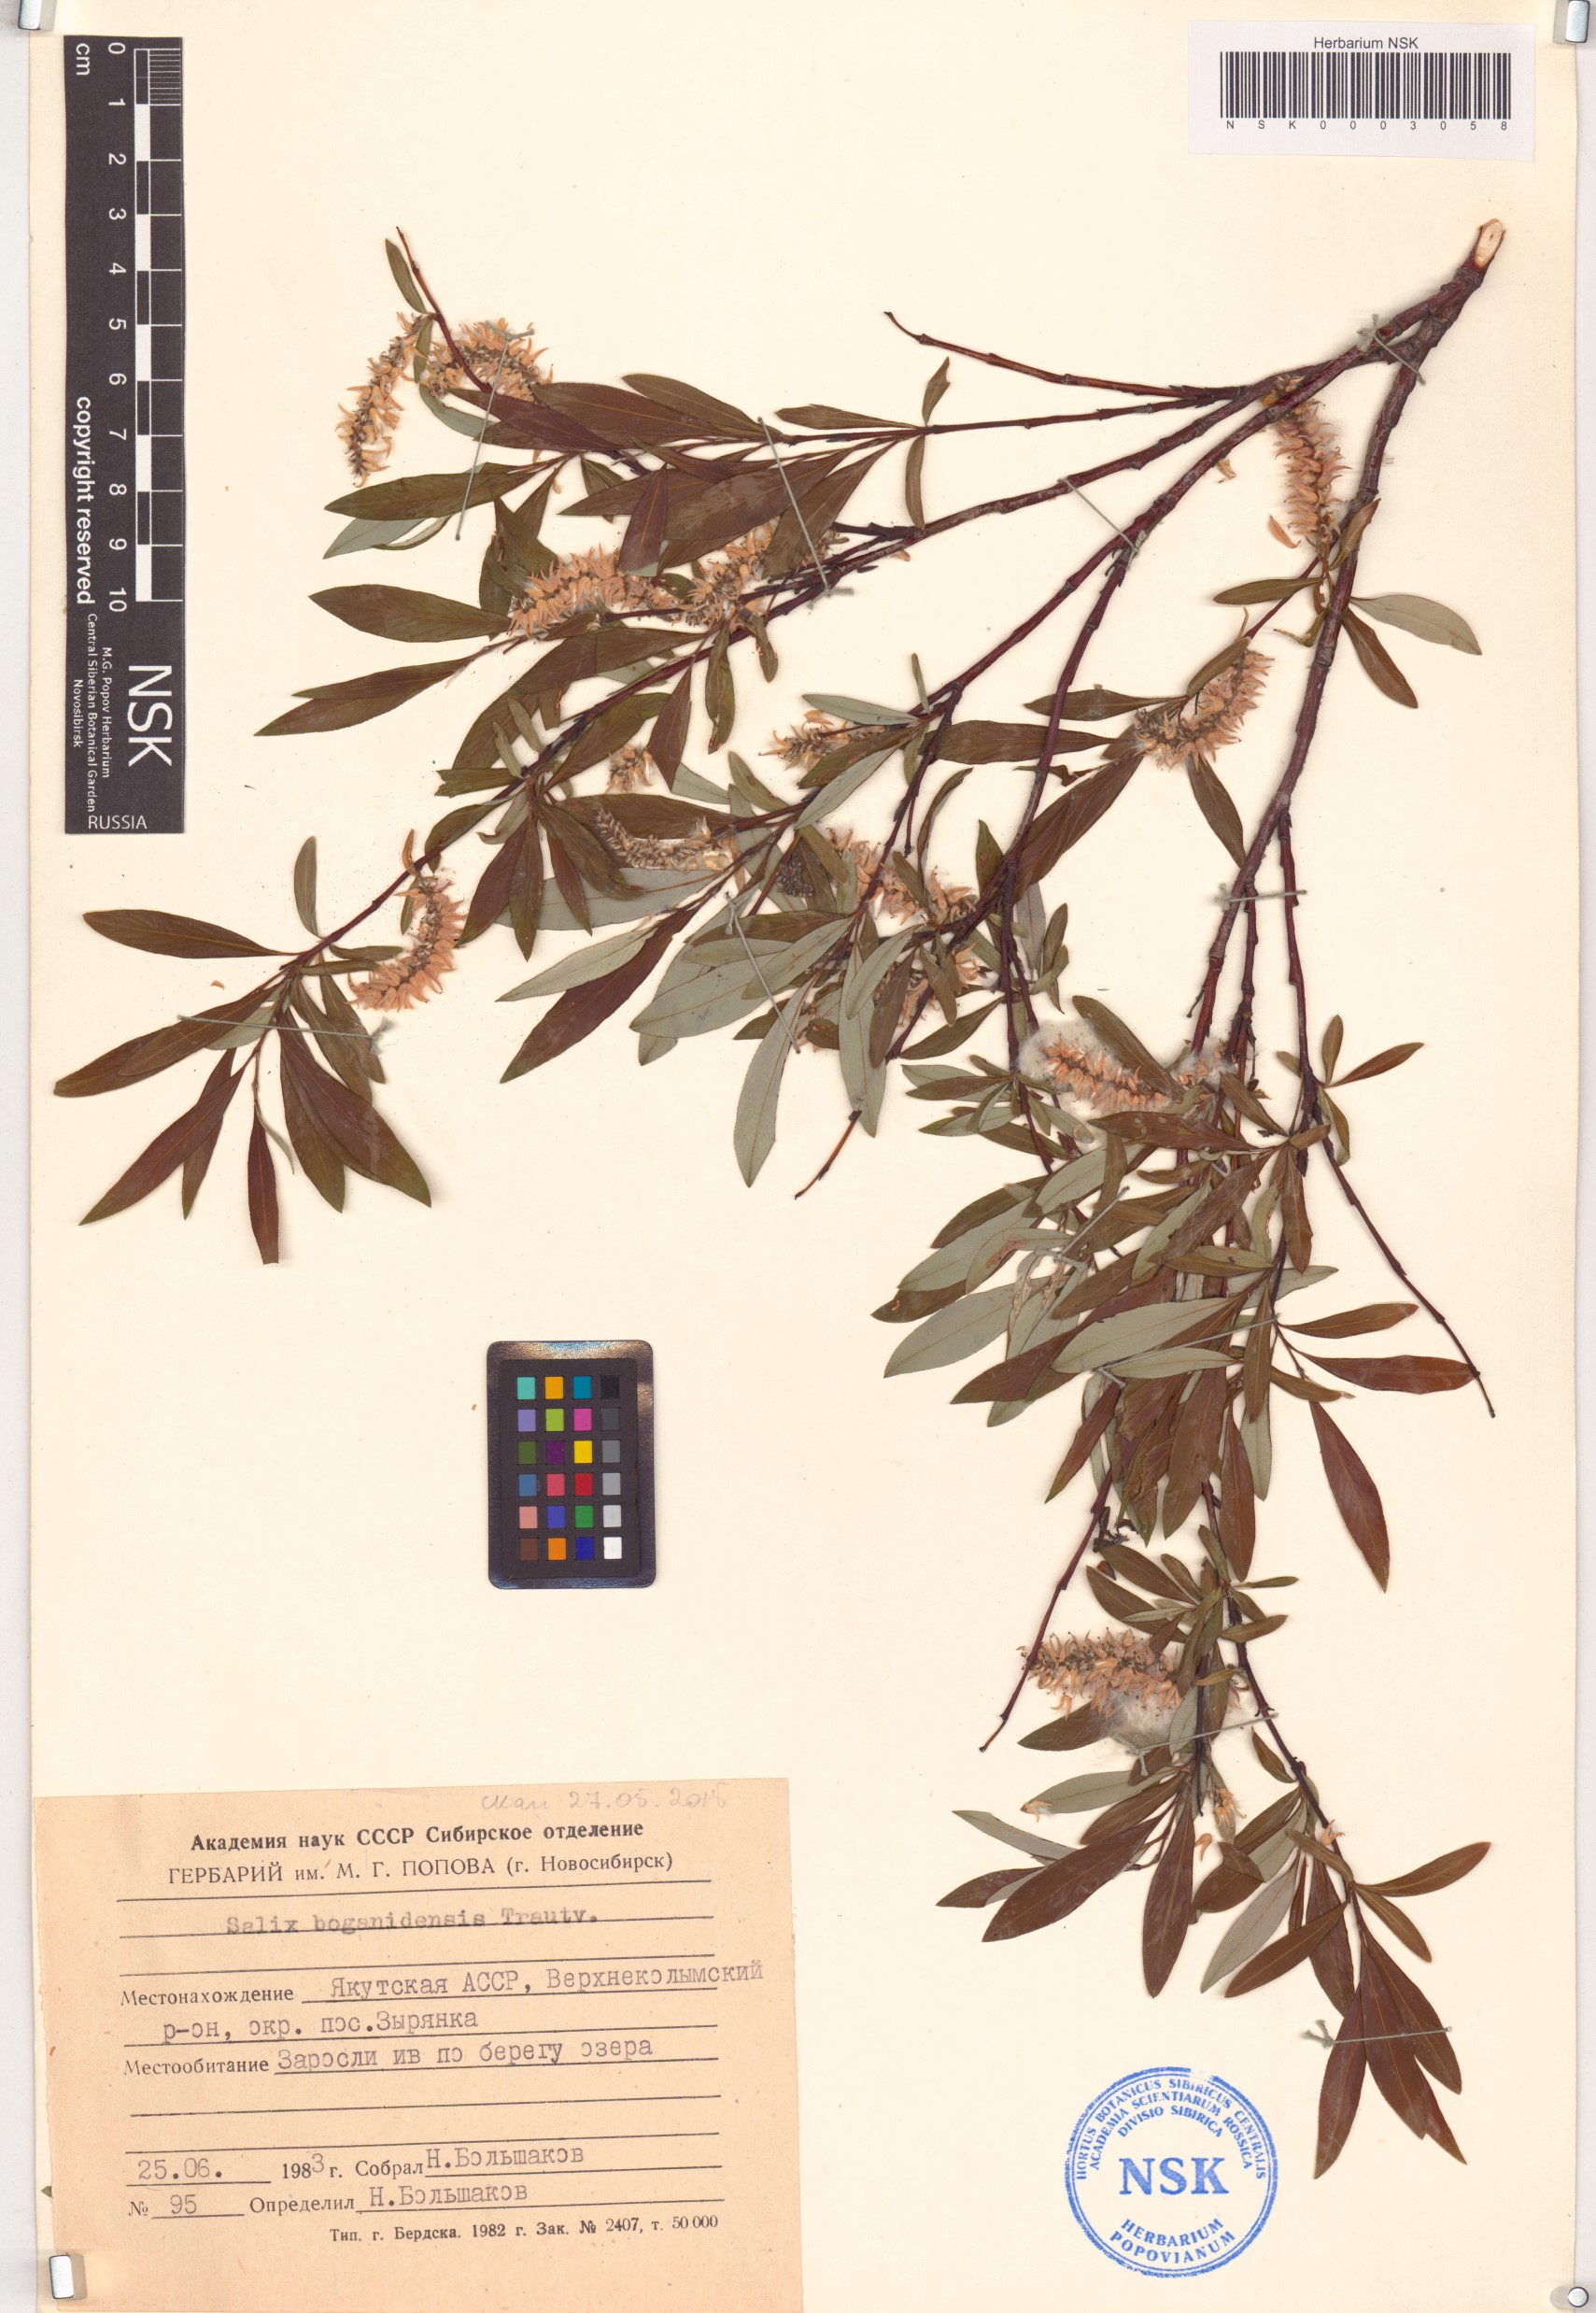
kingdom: Plantae
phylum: Tracheophyta
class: Magnoliopsida
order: Malpighiales
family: Salicaceae
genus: Salix
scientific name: Salix boganidensis
